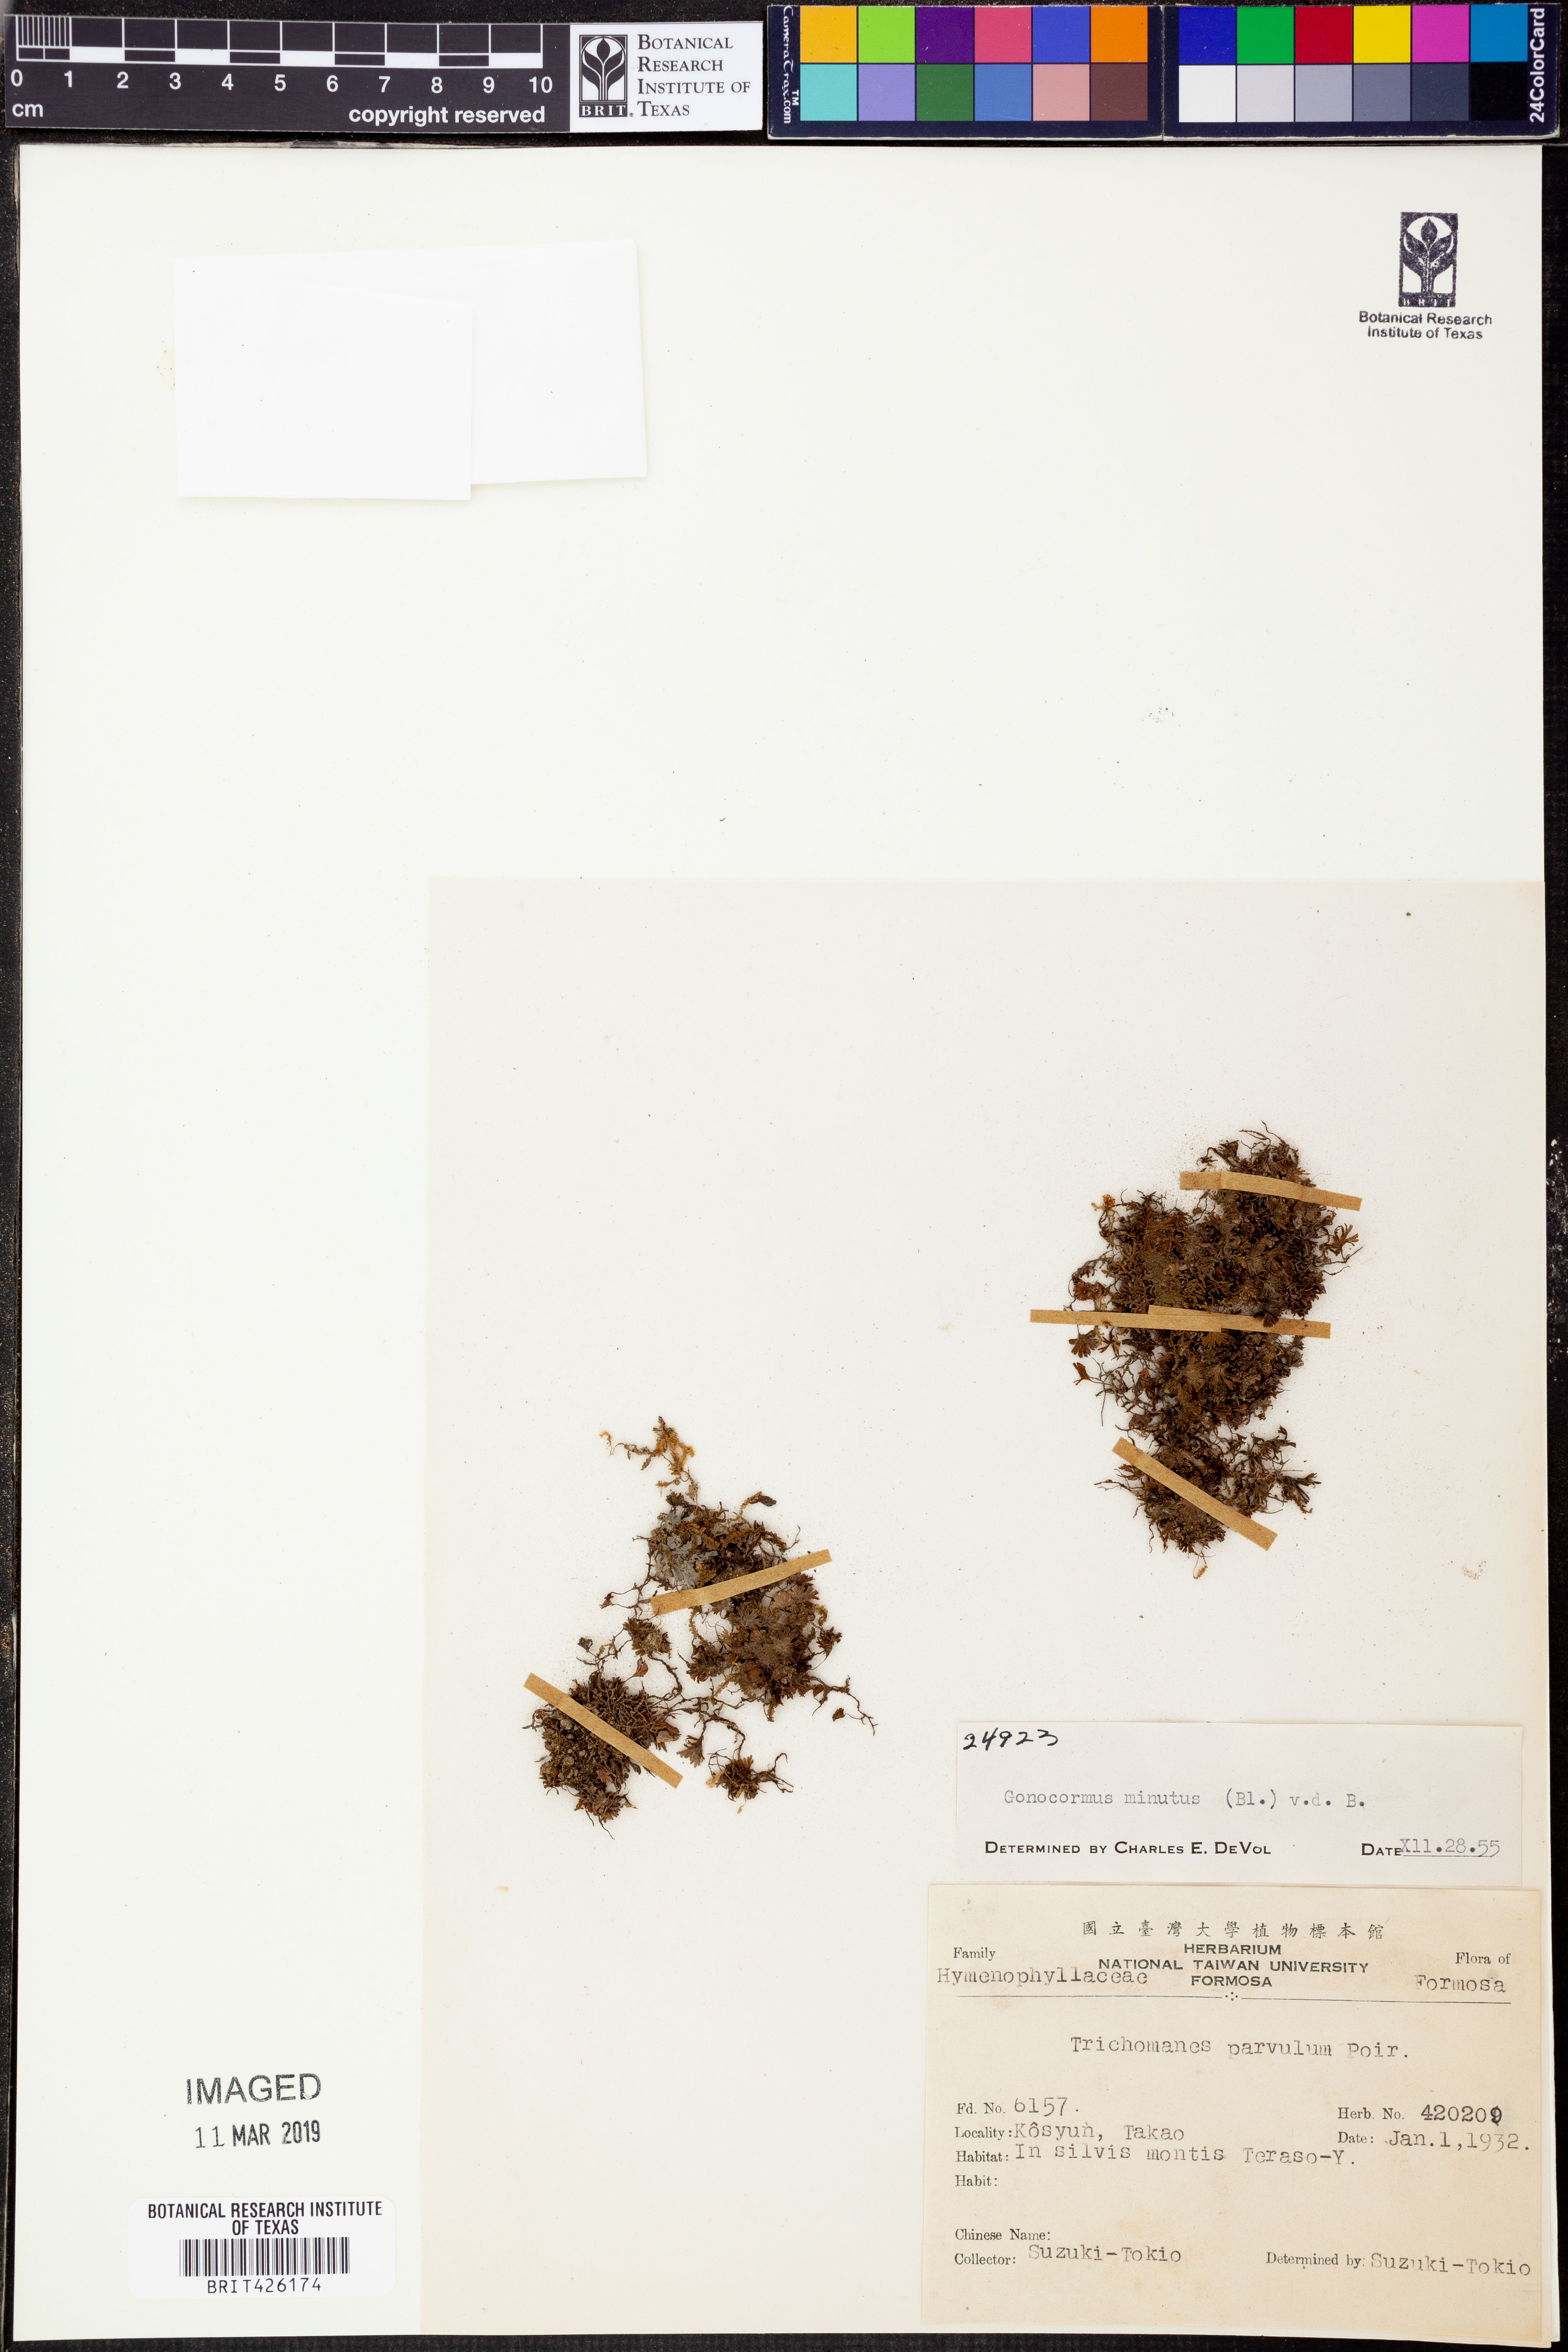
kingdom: Plantae
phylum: Tracheophyta
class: Polypodiopsida
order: Hymenophyllales
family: Hymenophyllaceae
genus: Crepidomanes
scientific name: Crepidomanes parvulum
